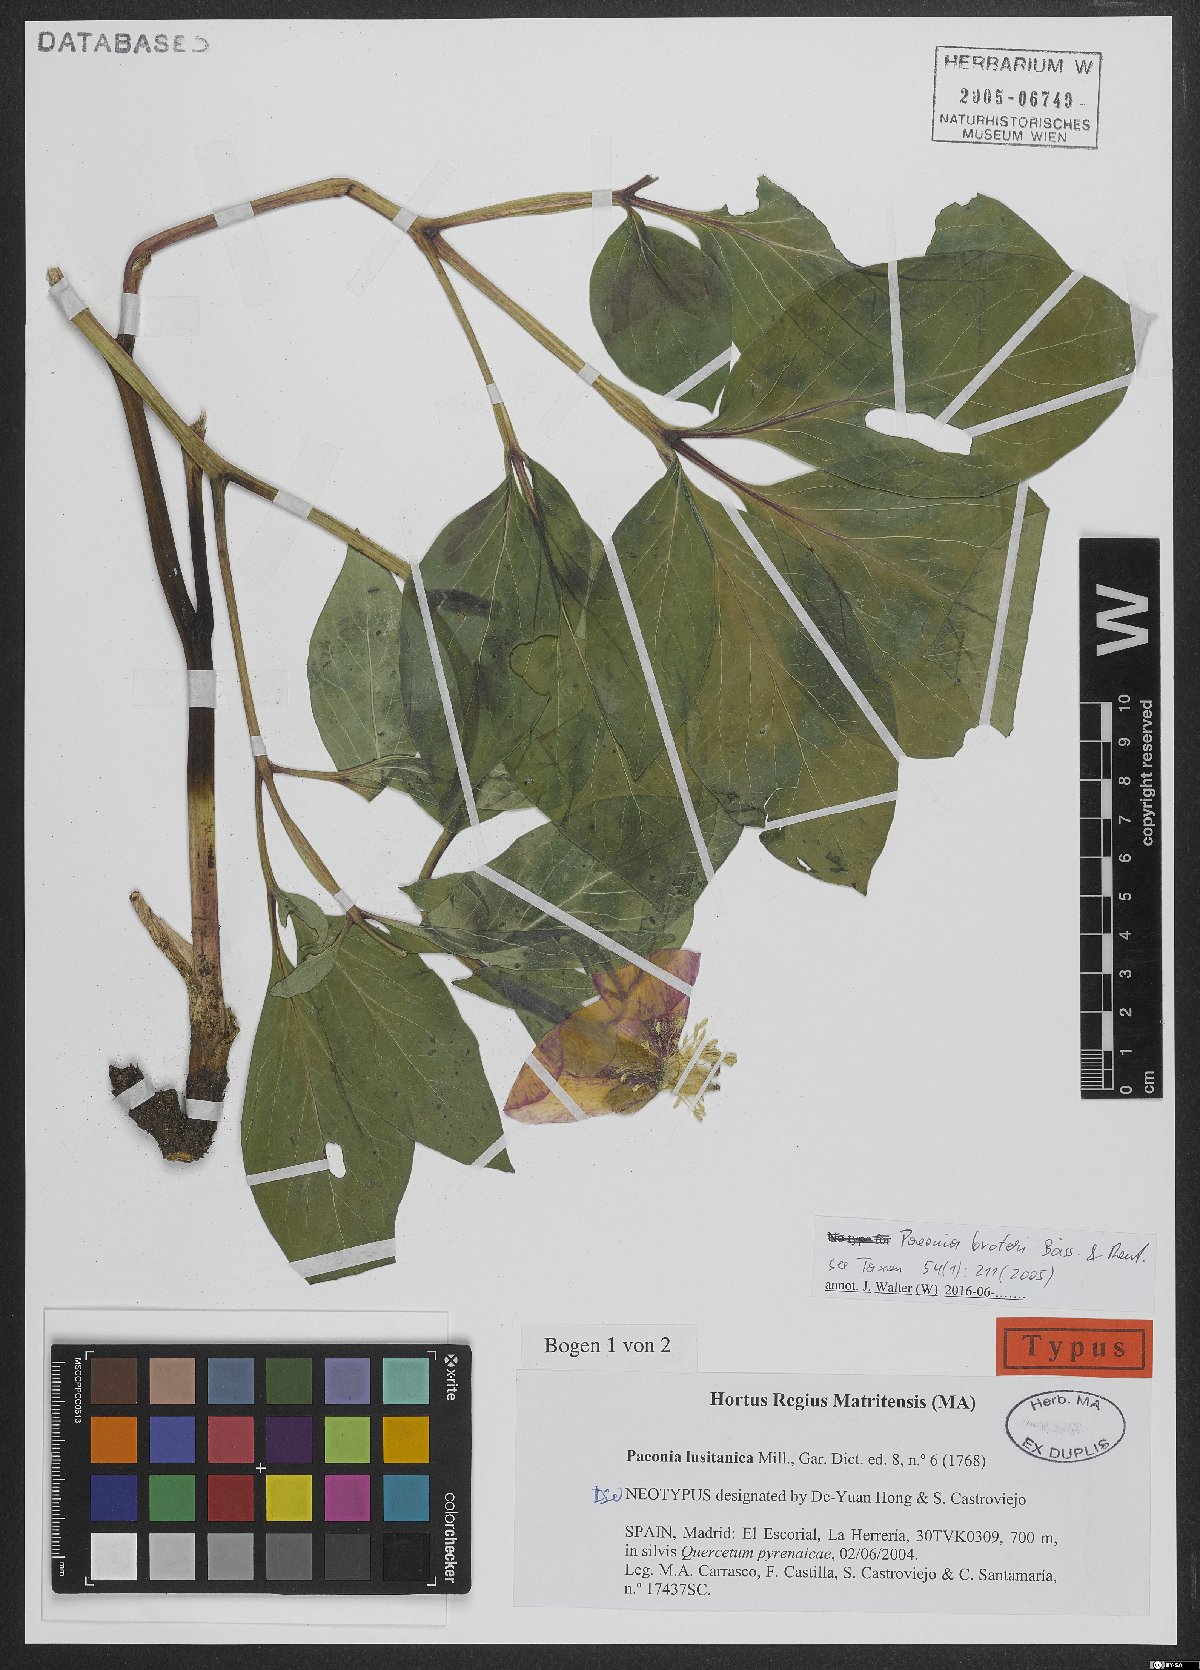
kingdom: Plantae
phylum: Tracheophyta
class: Magnoliopsida
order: Saxifragales
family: Paeoniaceae
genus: Paeonia
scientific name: Paeonia broteroi
